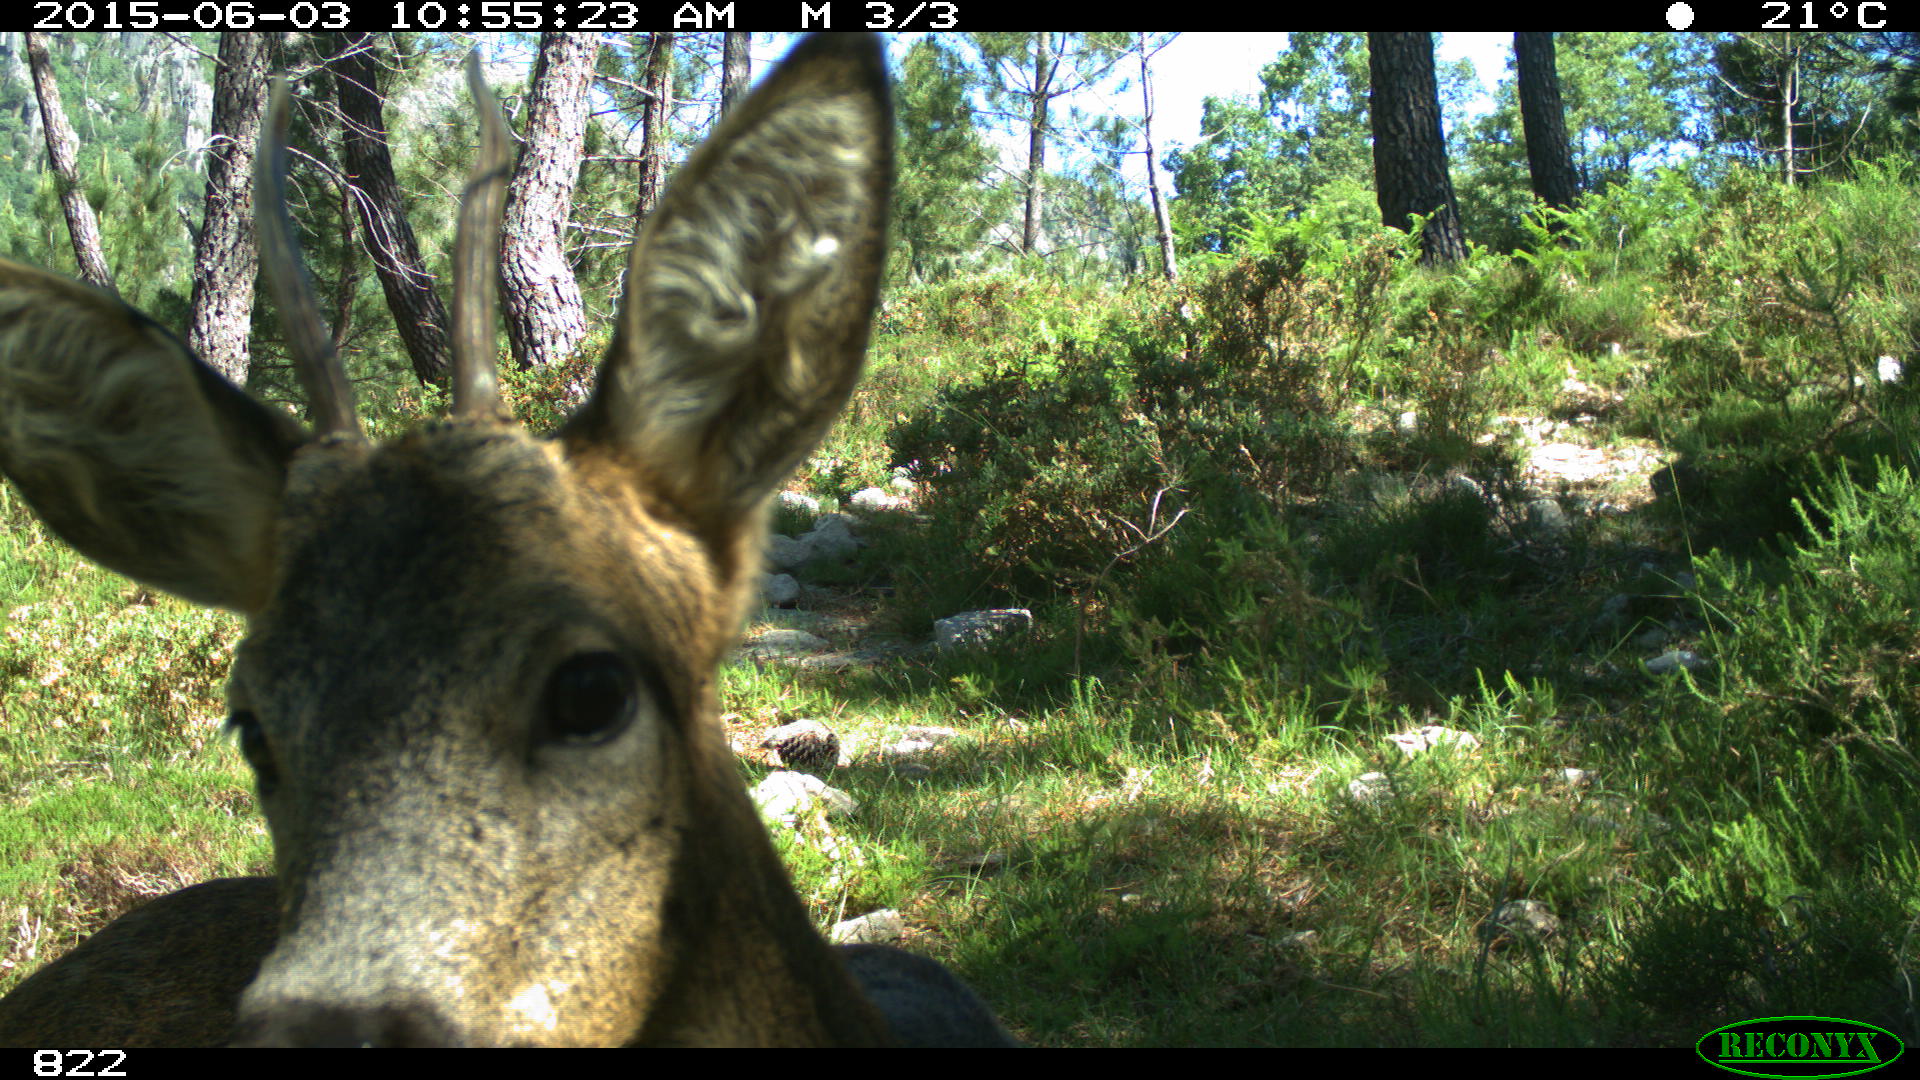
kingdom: Animalia
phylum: Chordata
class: Mammalia
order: Artiodactyla
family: Cervidae
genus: Capreolus
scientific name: Capreolus capreolus
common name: Western roe deer
